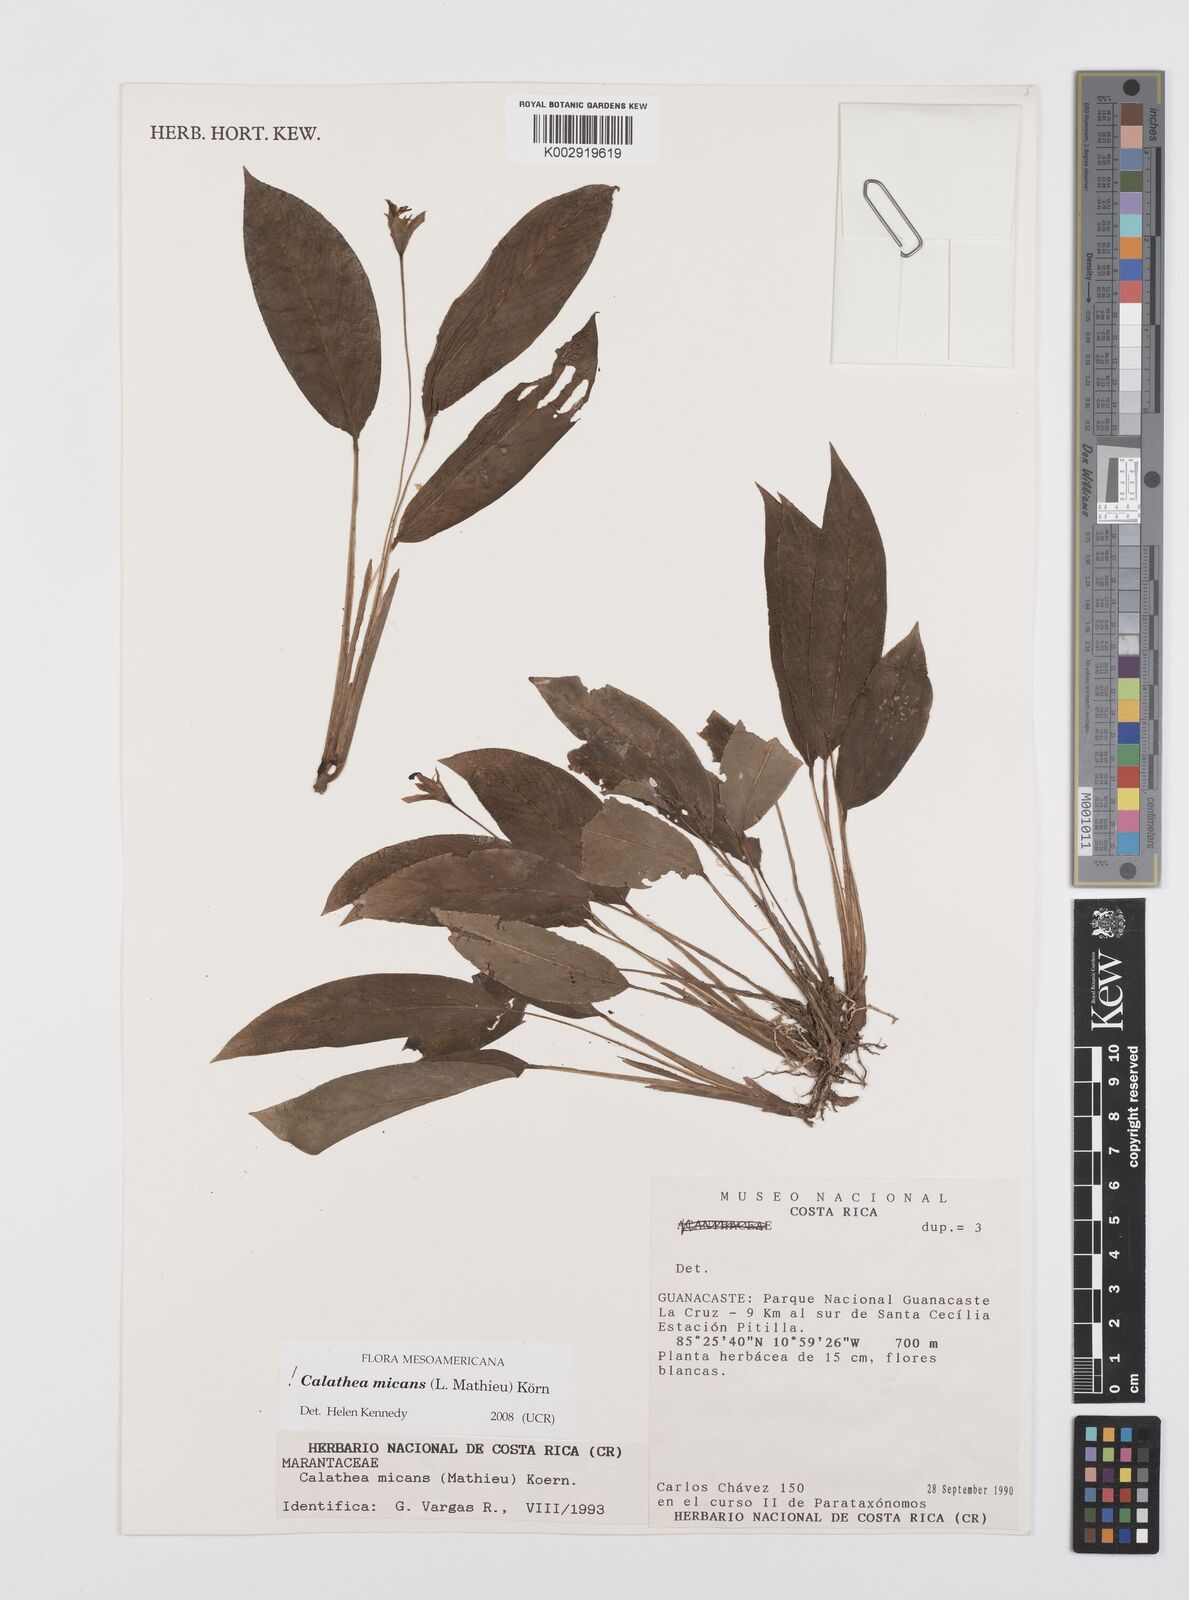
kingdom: Plantae
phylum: Tracheophyta
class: Liliopsida
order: Zingiberales
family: Marantaceae
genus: Goeppertia
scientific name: Goeppertia micans
